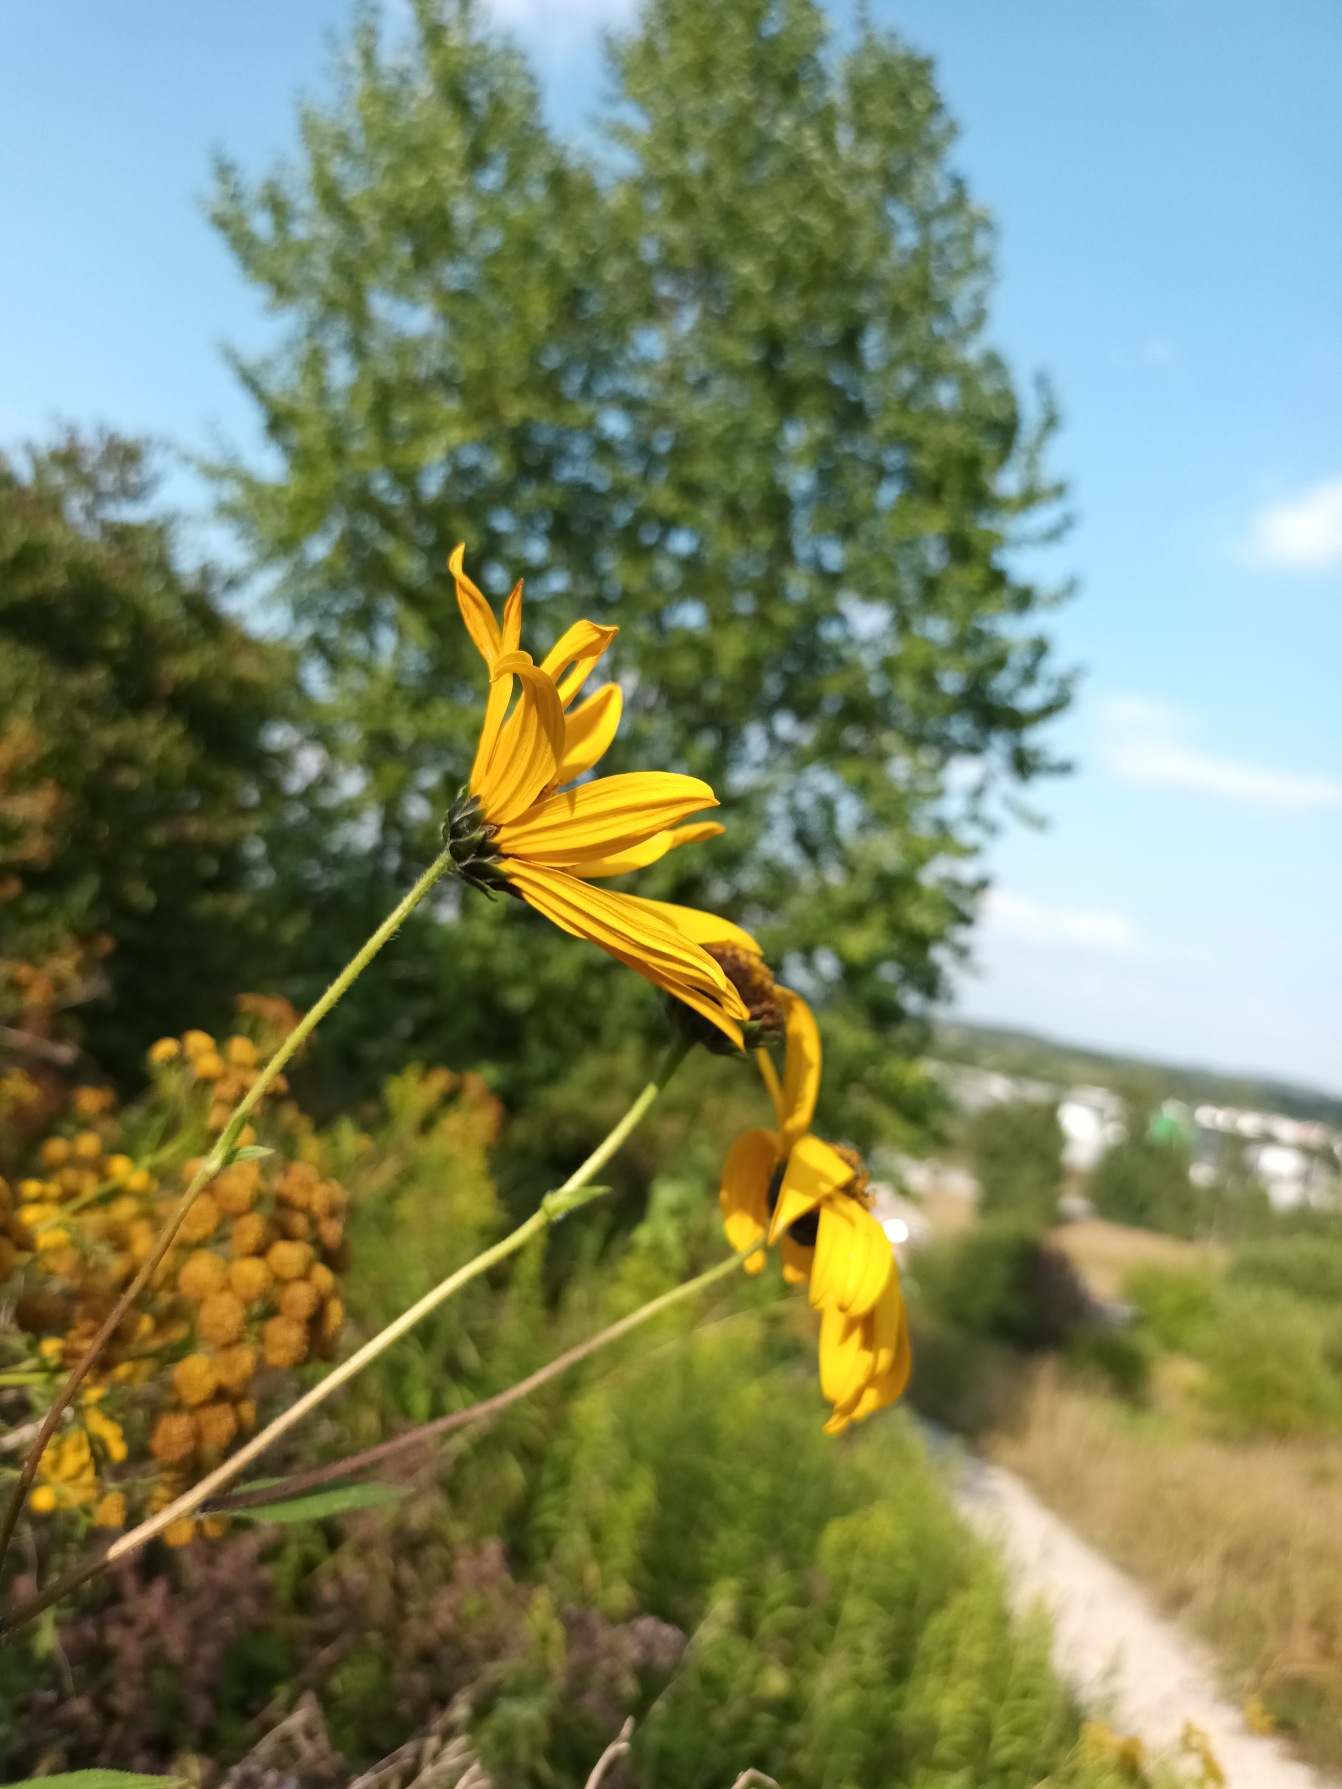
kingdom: Plantae
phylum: Tracheophyta
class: Magnoliopsida
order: Asterales
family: Asteraceae
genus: Helianthus
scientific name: Helianthus laetiflorus
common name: Staude-solsikke × jordskok
